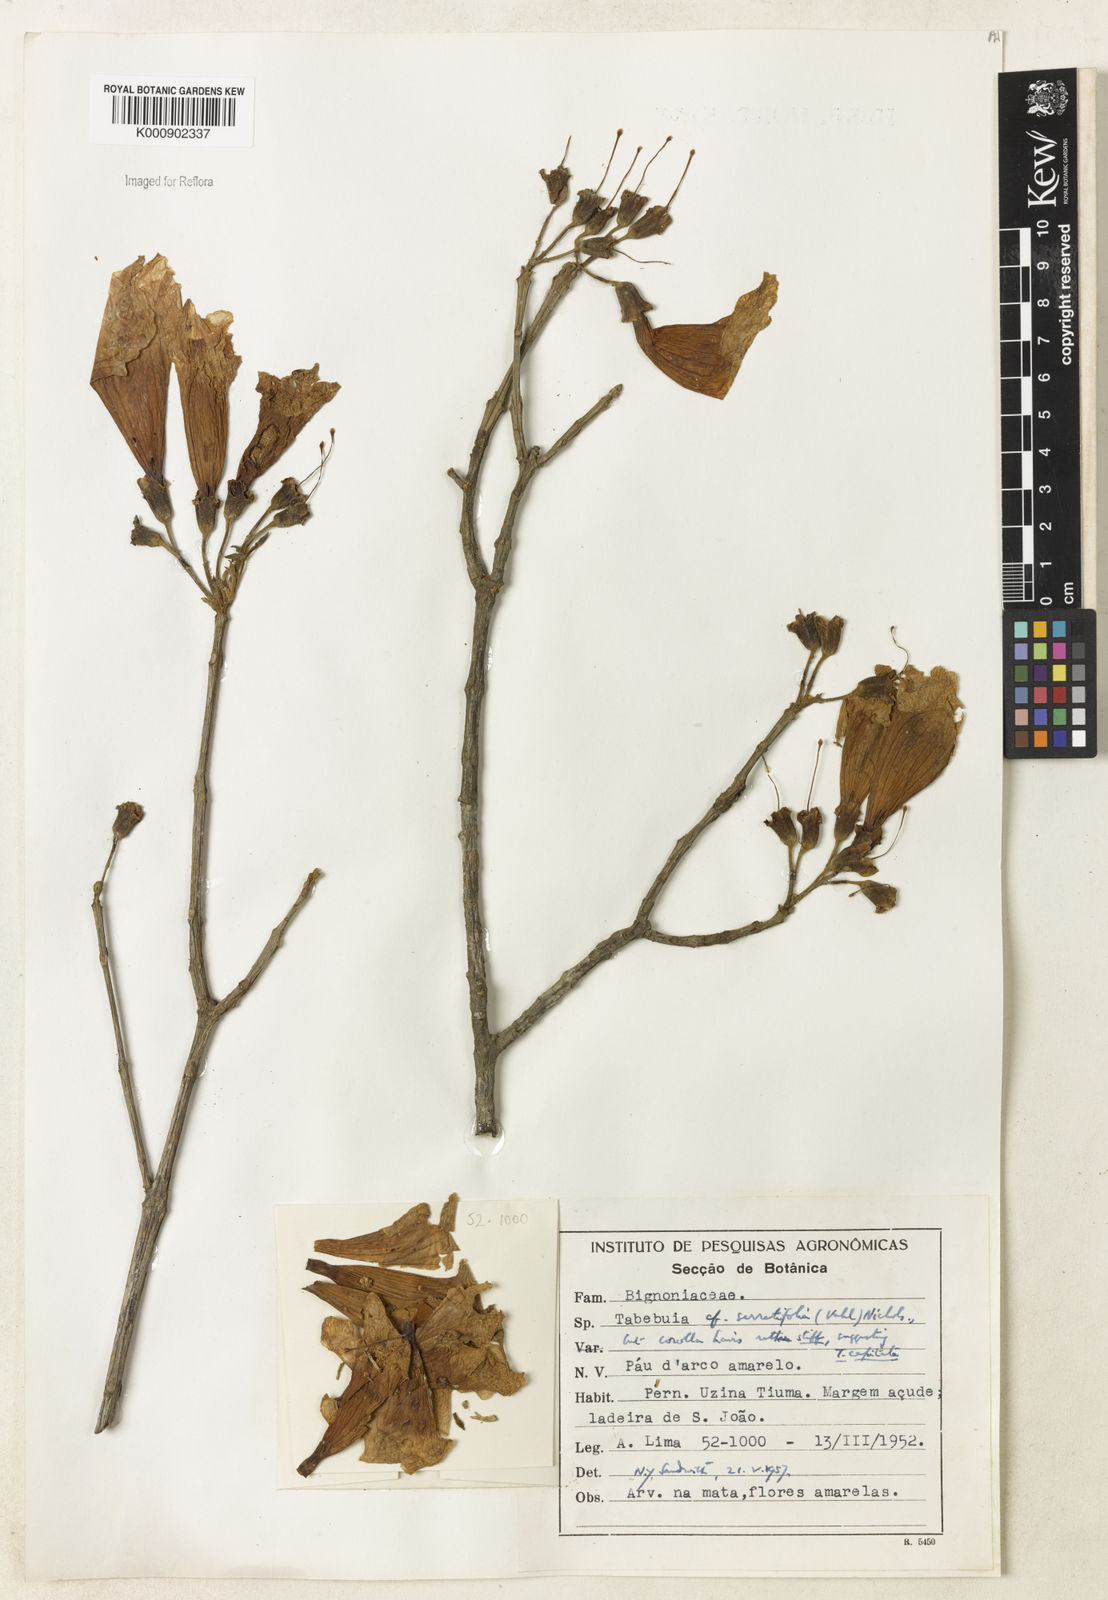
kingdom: Plantae
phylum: Tracheophyta
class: Magnoliopsida
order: Lamiales
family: Bignoniaceae
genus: Handroanthus
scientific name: Handroanthus serratifolius
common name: Yellow ipe
